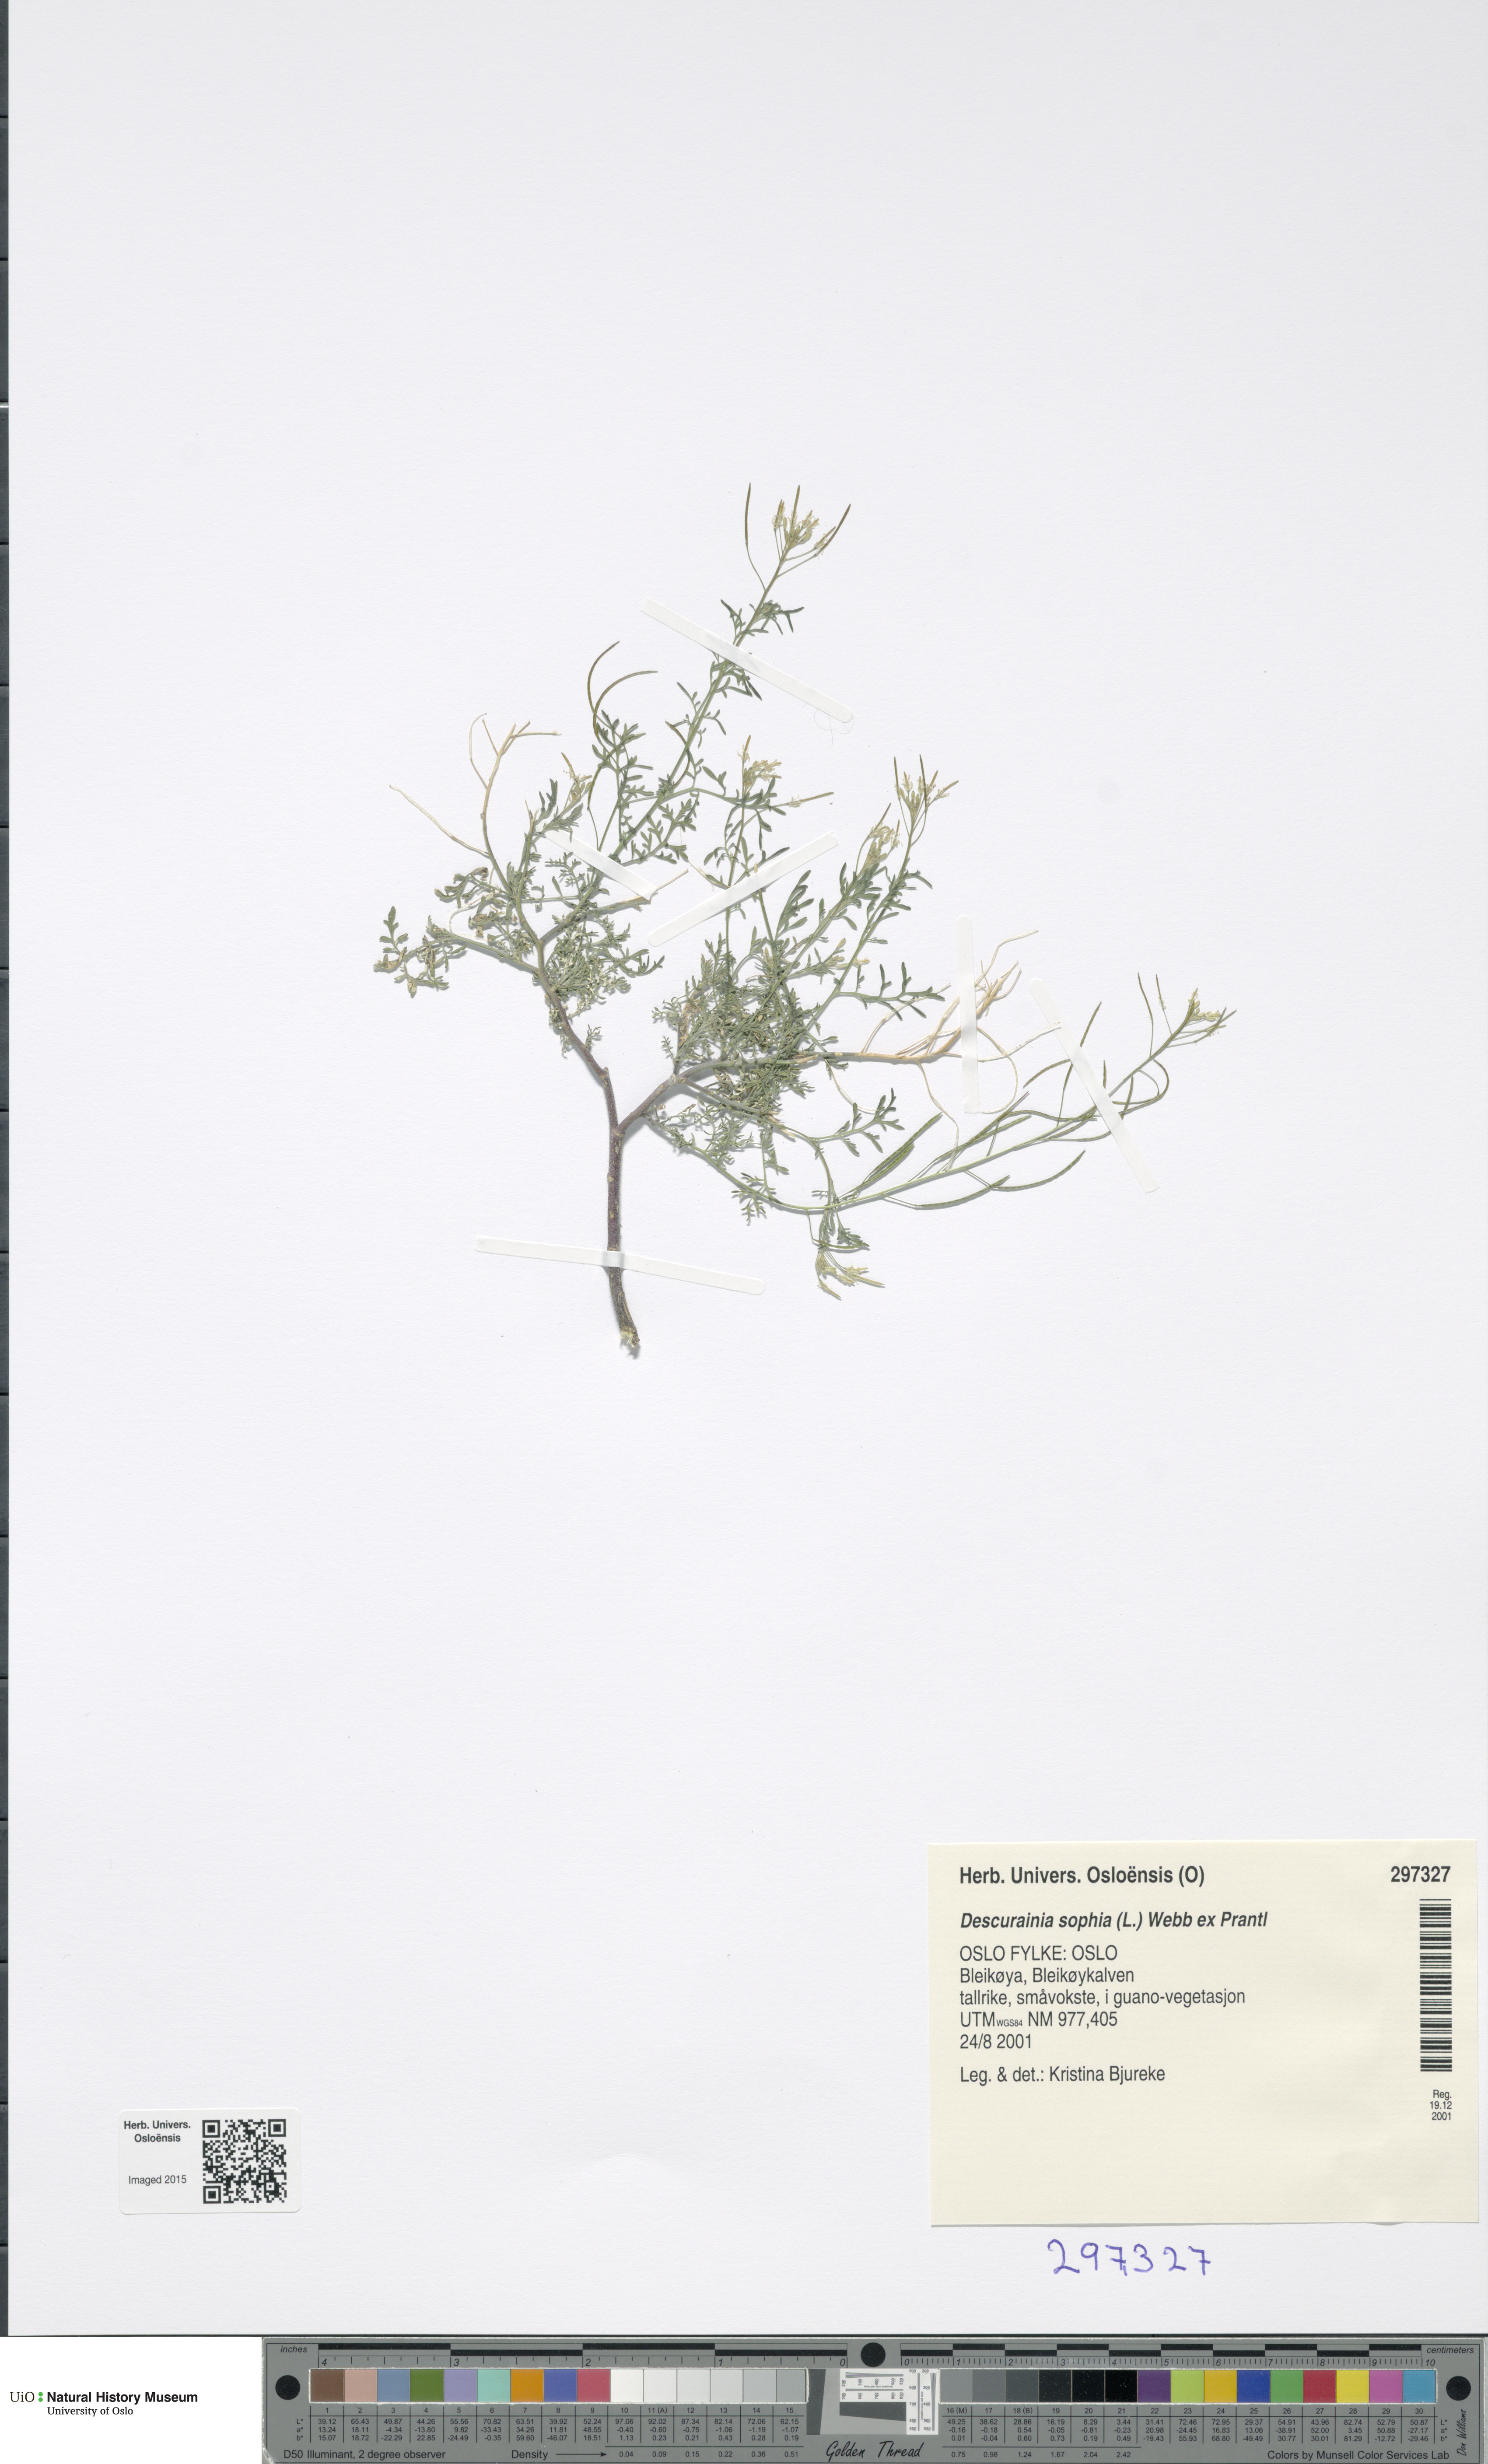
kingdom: Plantae
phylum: Tracheophyta
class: Magnoliopsida
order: Brassicales
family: Brassicaceae
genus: Descurainia
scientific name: Descurainia sophia
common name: Flixweed
